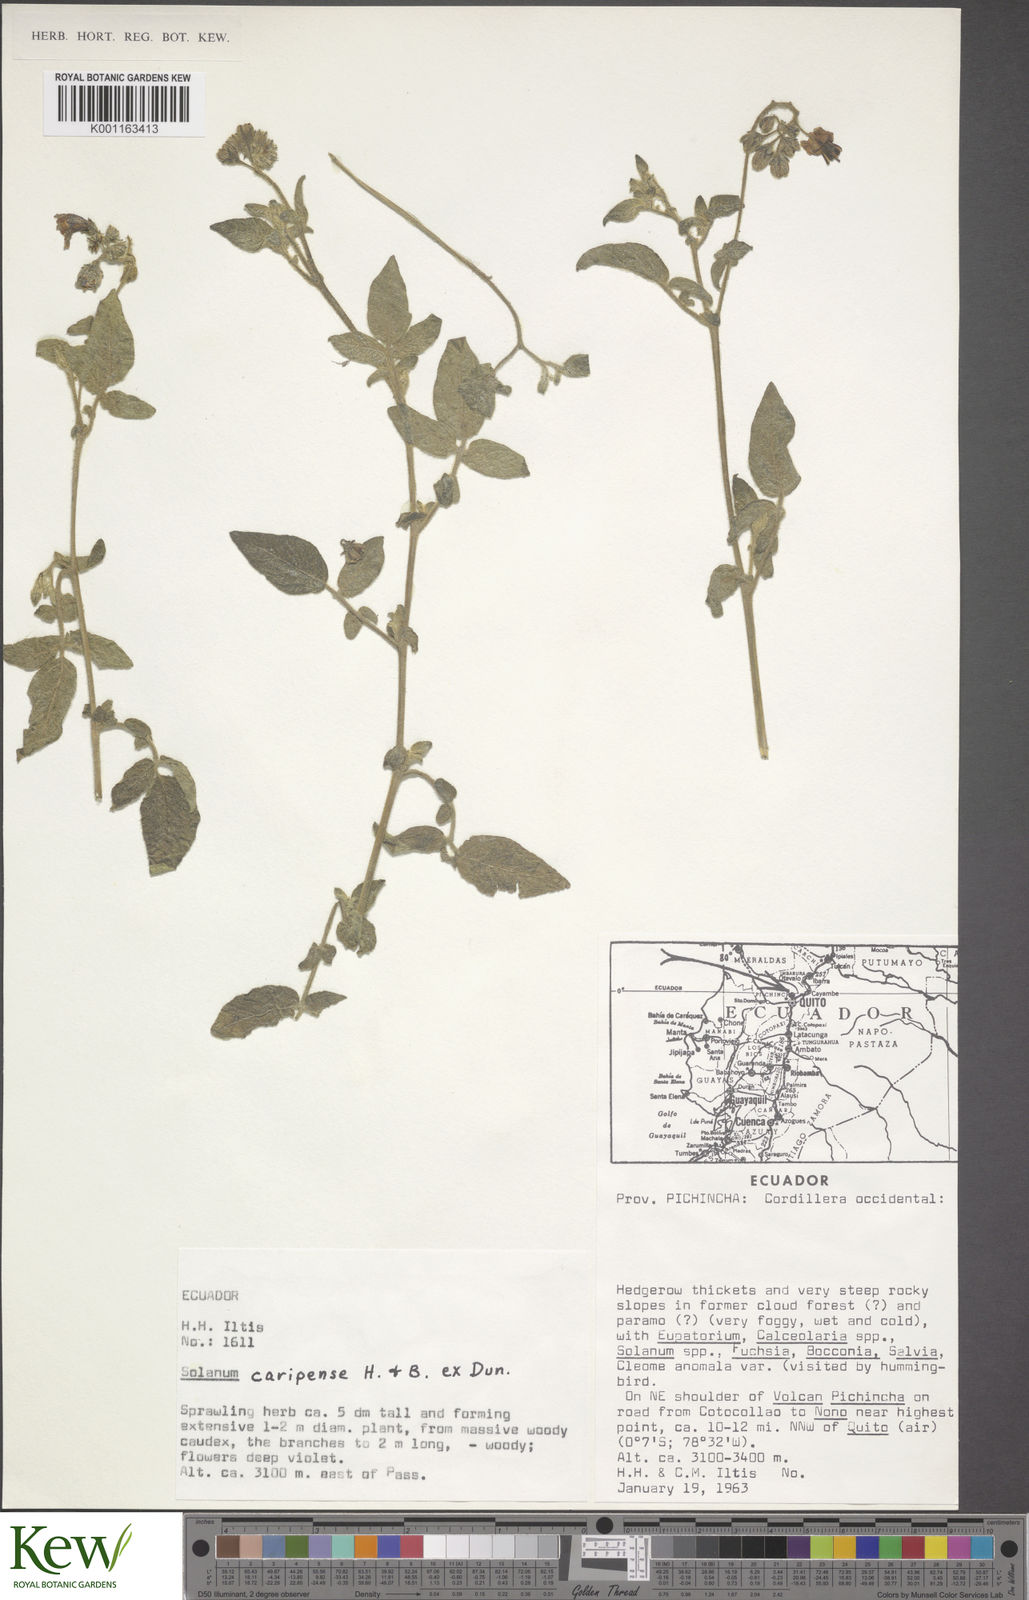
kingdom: Plantae
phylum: Tracheophyta
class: Magnoliopsida
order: Solanales
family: Solanaceae
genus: Solanum
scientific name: Solanum caripense
